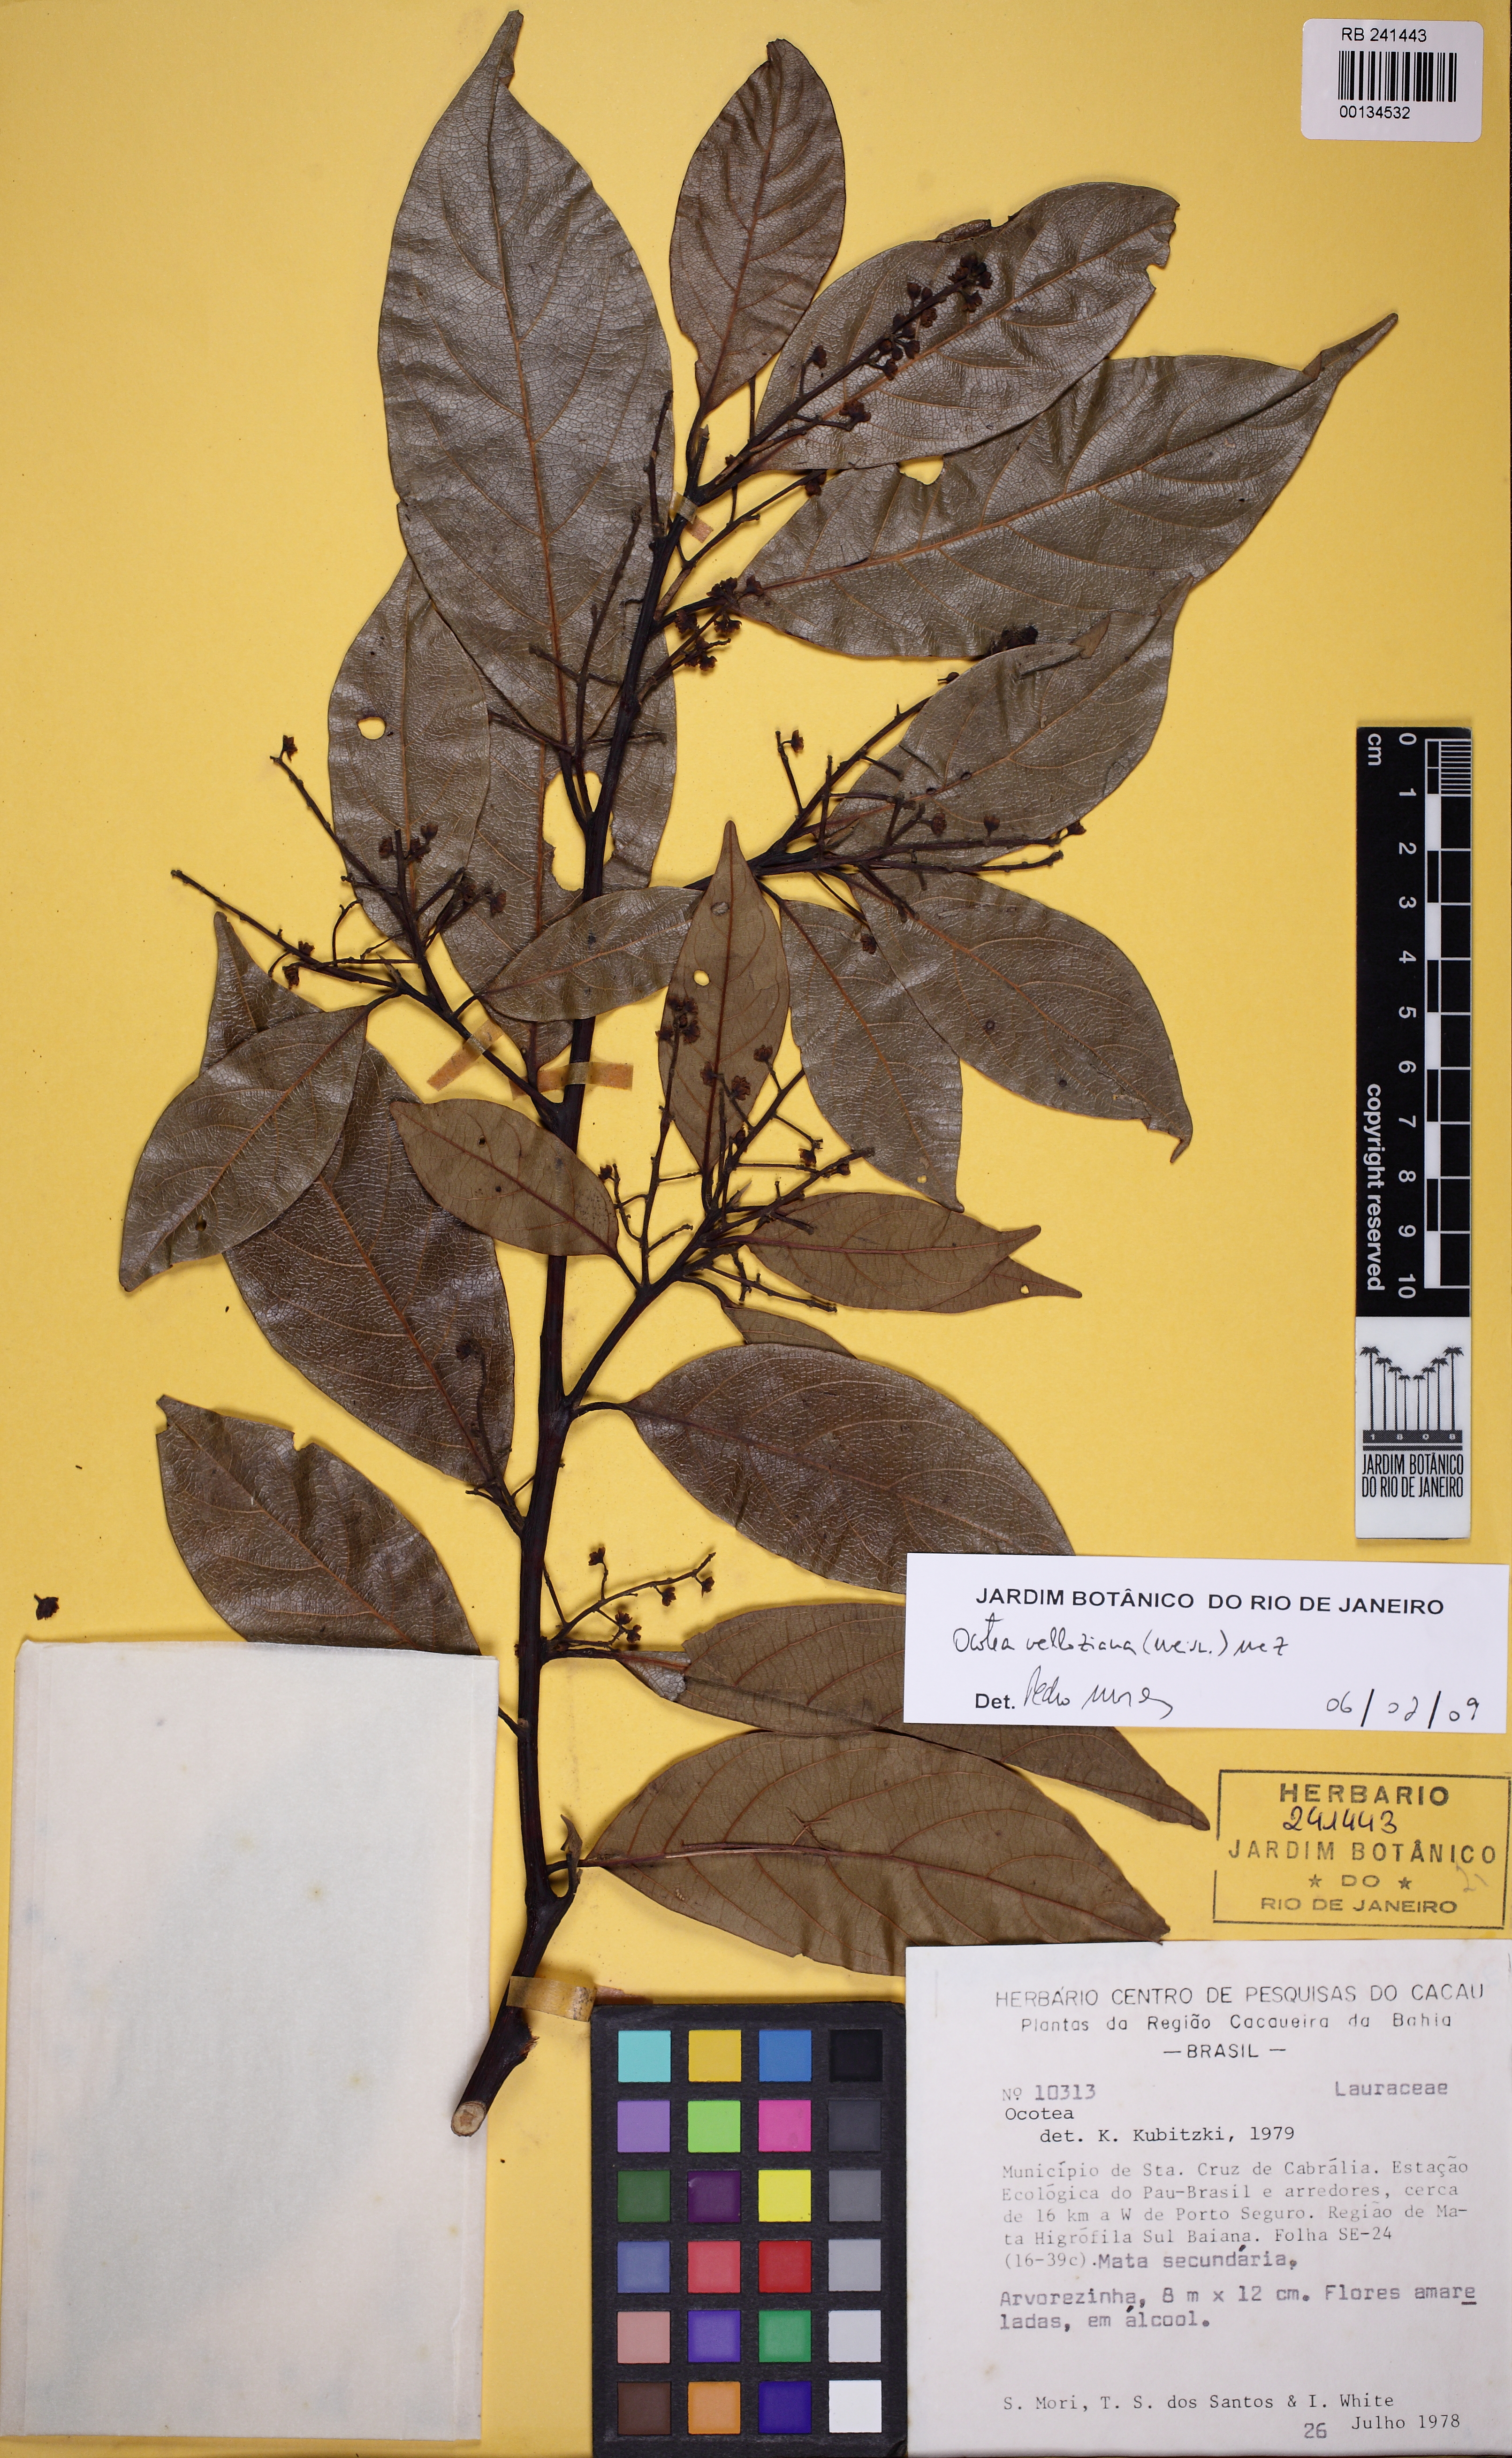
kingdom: Plantae
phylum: Tracheophyta
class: Magnoliopsida
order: Laurales
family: Lauraceae
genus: Ocotea
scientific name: Ocotea velloziana
